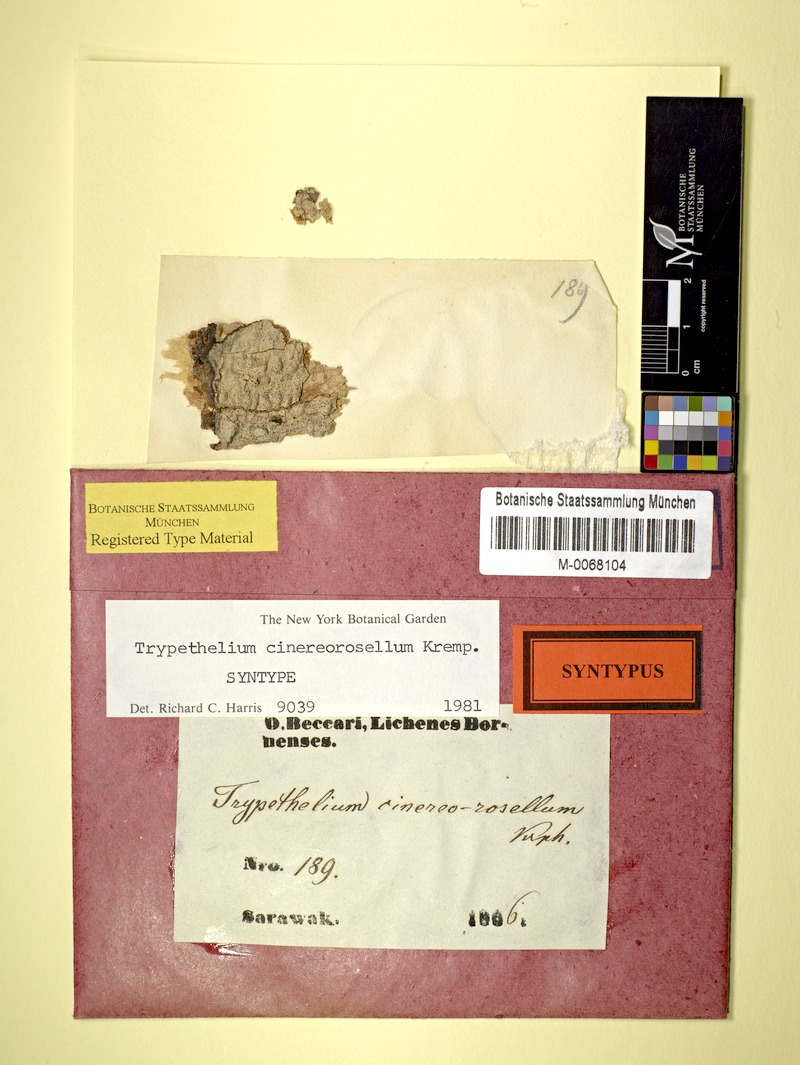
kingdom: Fungi
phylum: Ascomycota
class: Dothideomycetes
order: Trypetheliales
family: Trypetheliaceae
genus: Astrothelium
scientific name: Astrothelium cinereorosellum
